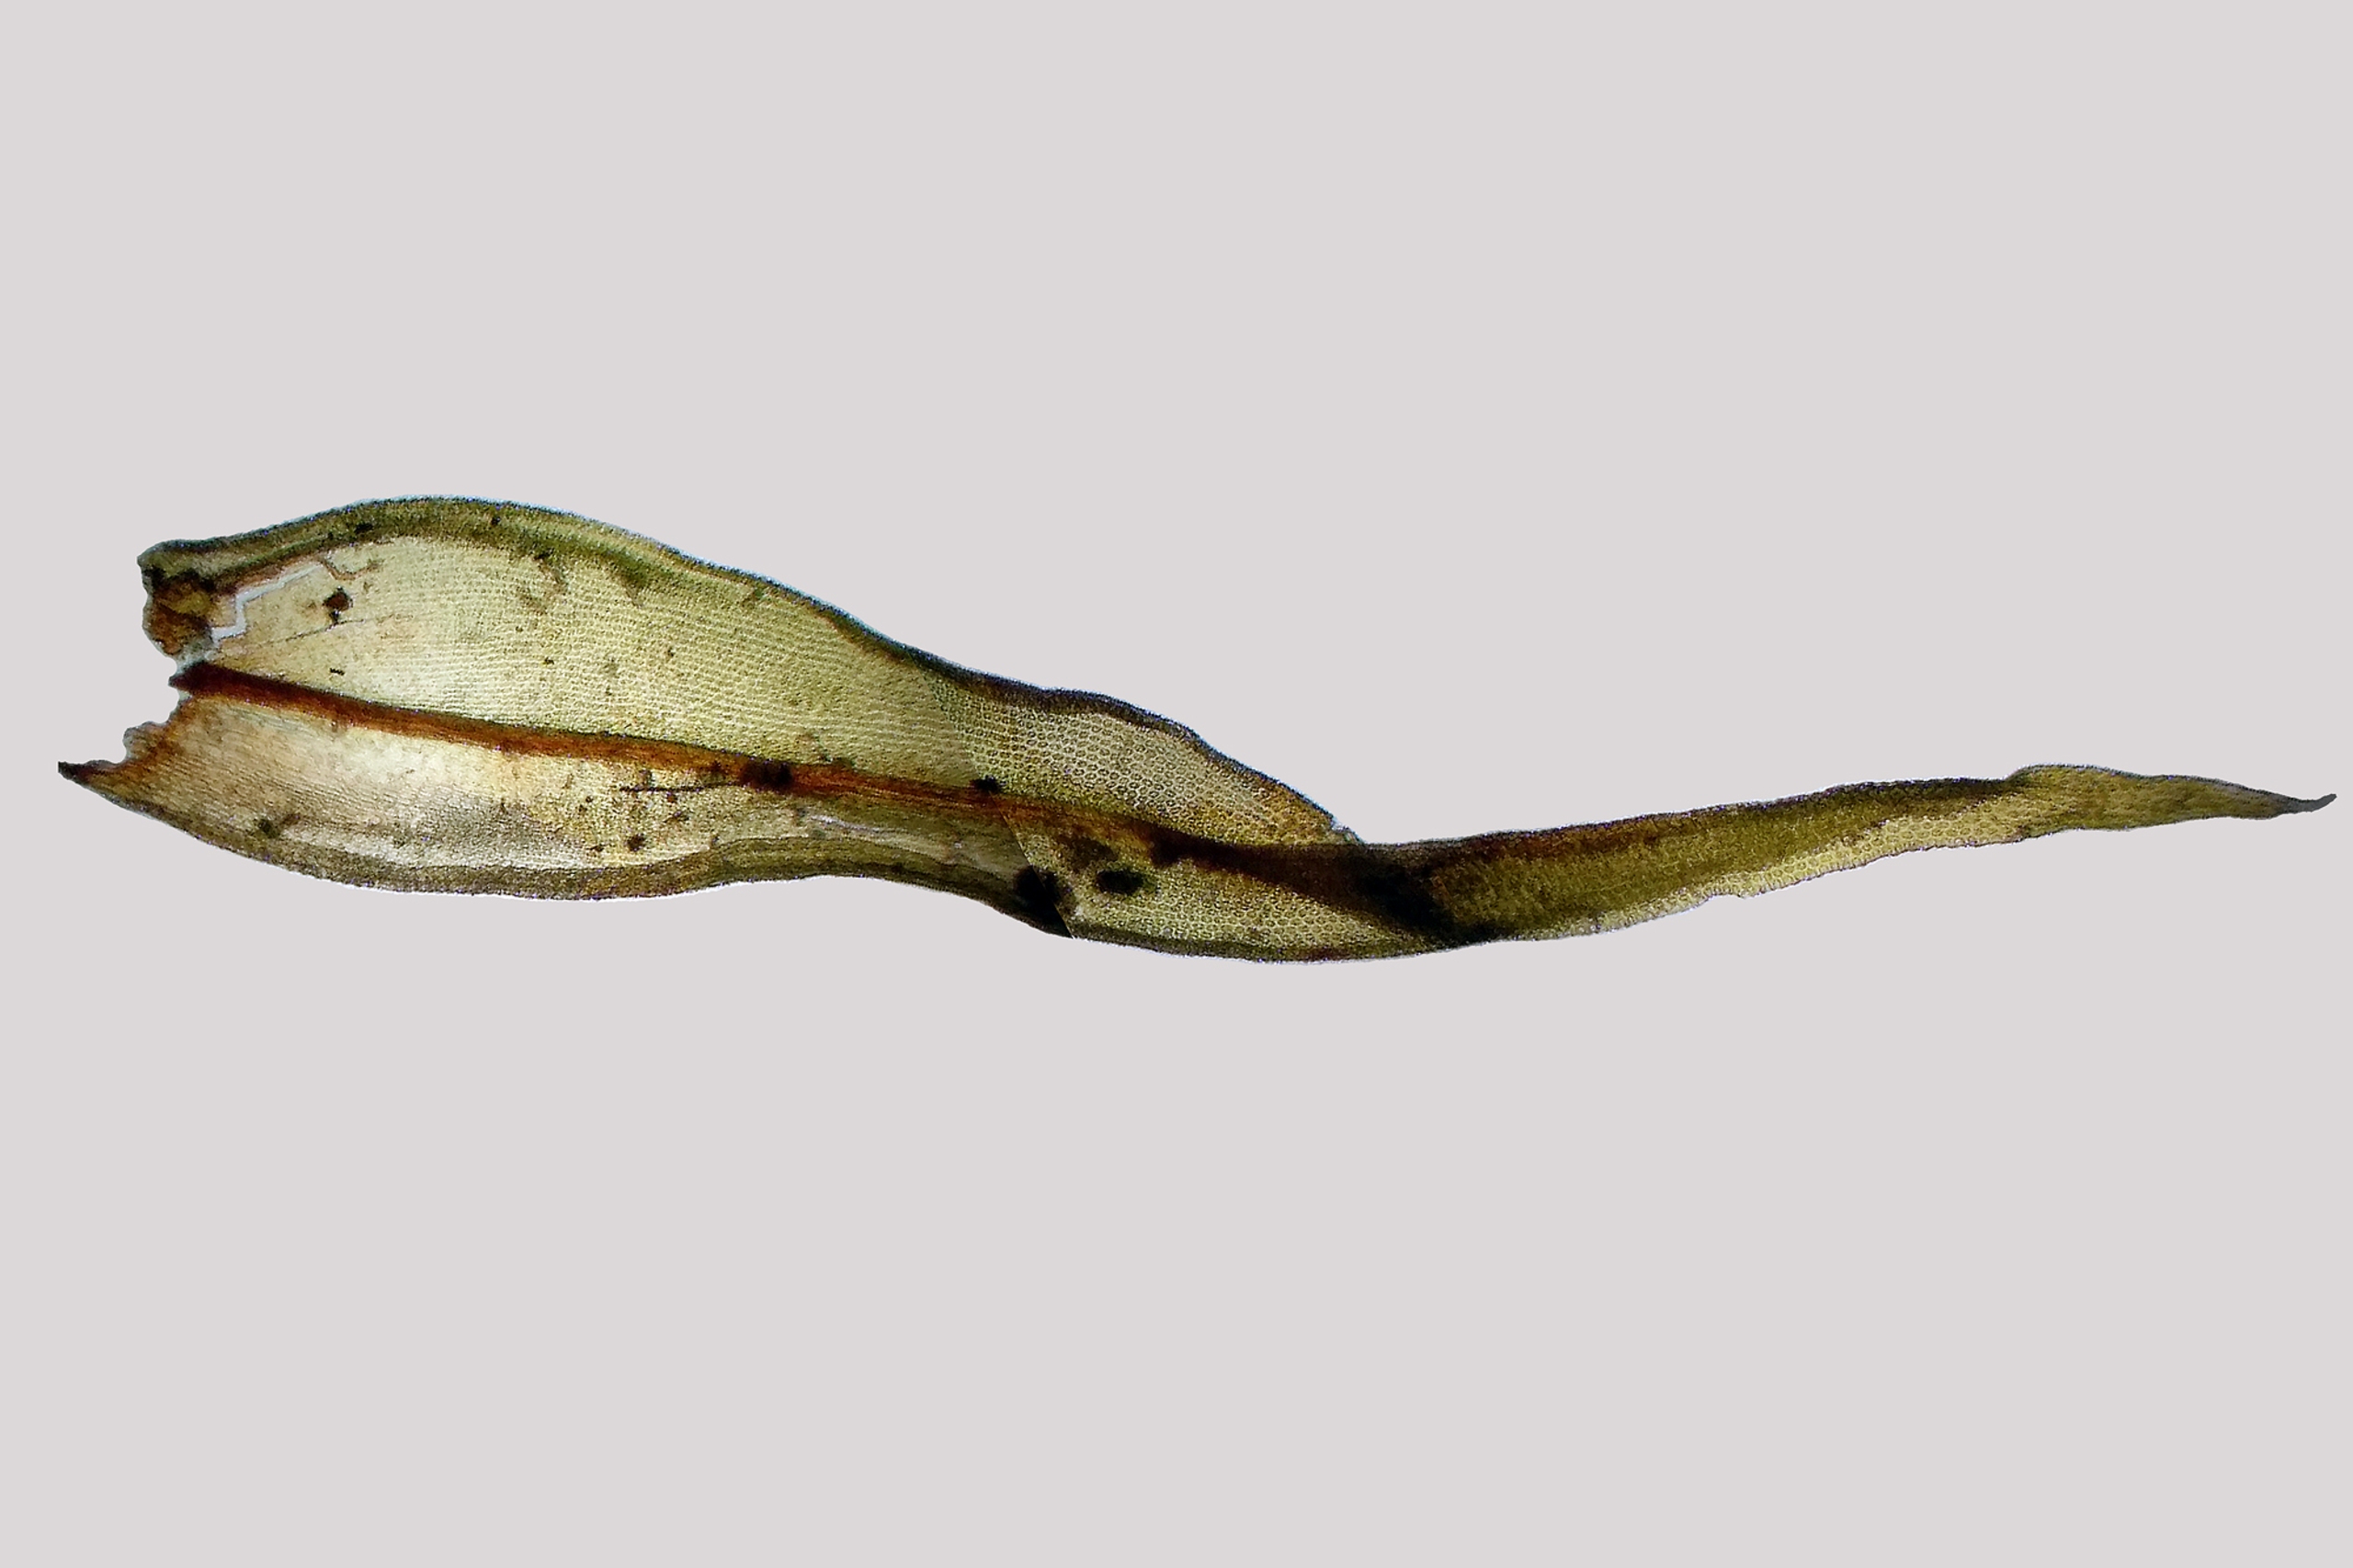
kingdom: Plantae
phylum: Bryophyta
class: Bryopsida
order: Orthotrichales
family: Orthotrichaceae
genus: Lewinskya
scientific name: Lewinskya speciosa
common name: Kortstribet furehætte
